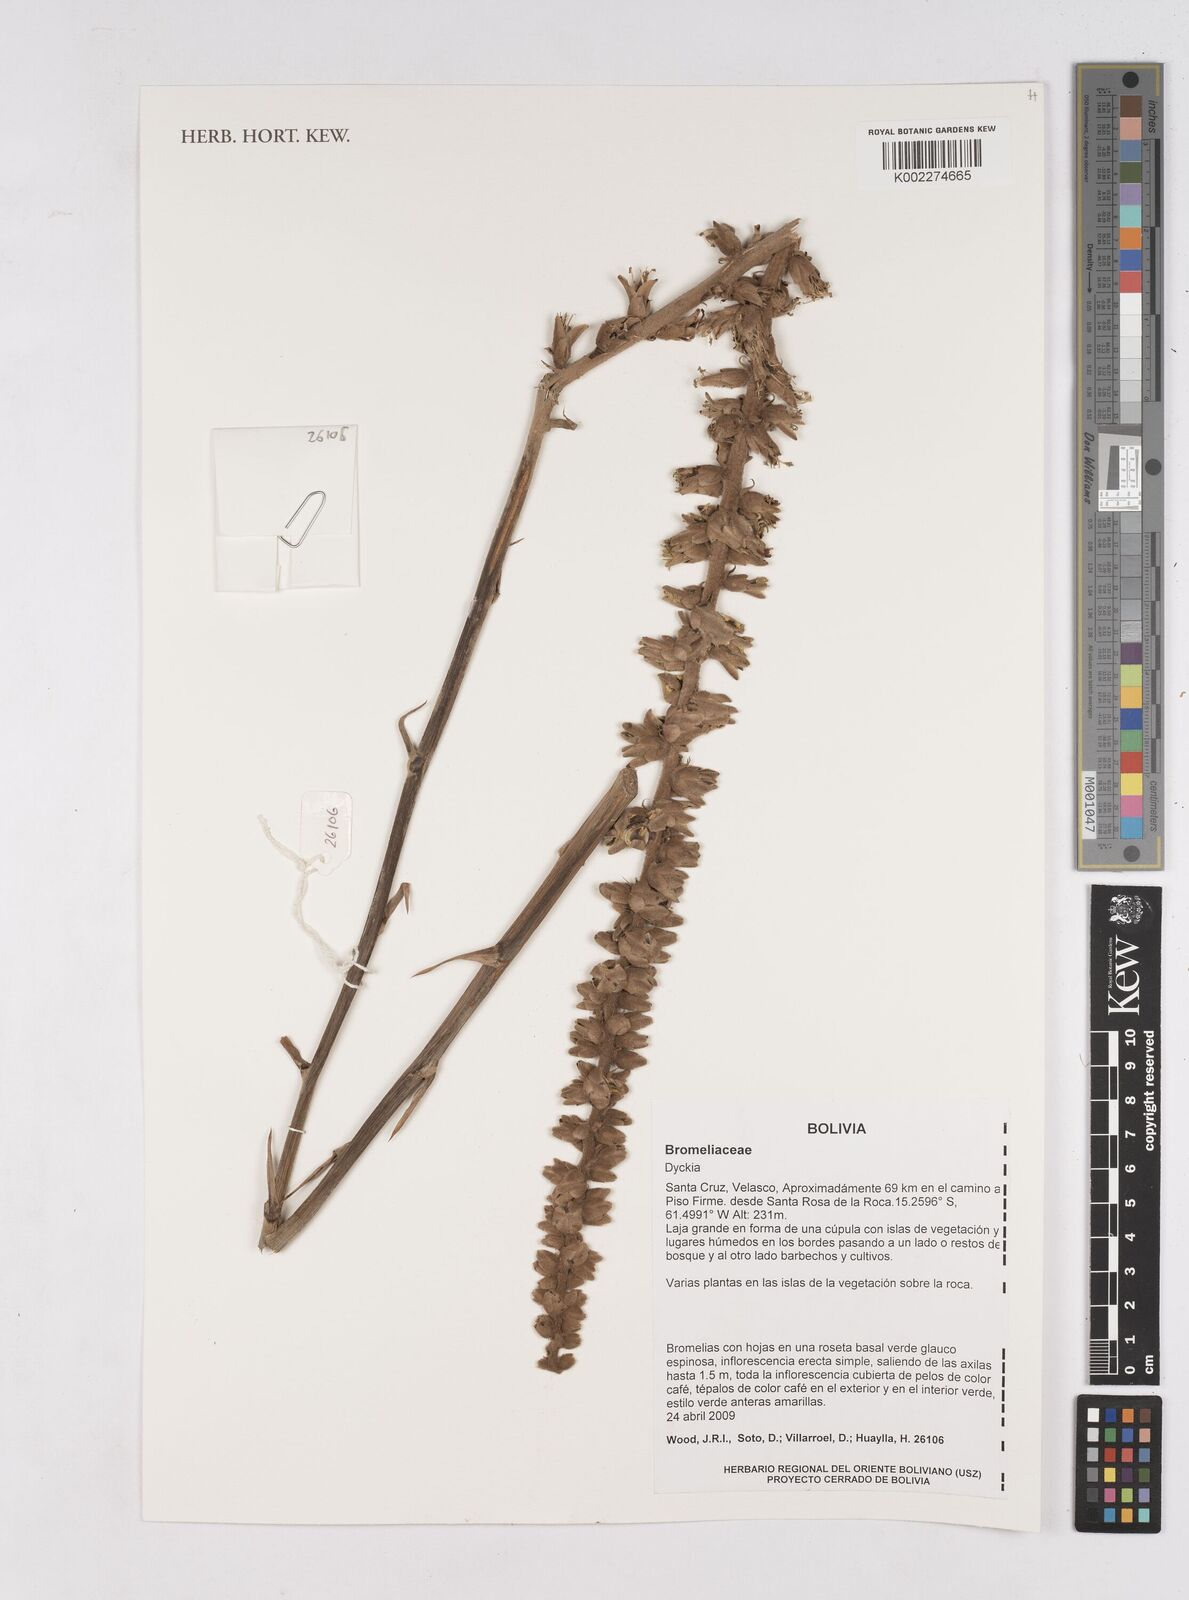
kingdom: Plantae
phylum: Tracheophyta
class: Liliopsida
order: Poales
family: Bromeliaceae
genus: Dyckia
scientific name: Dyckia
